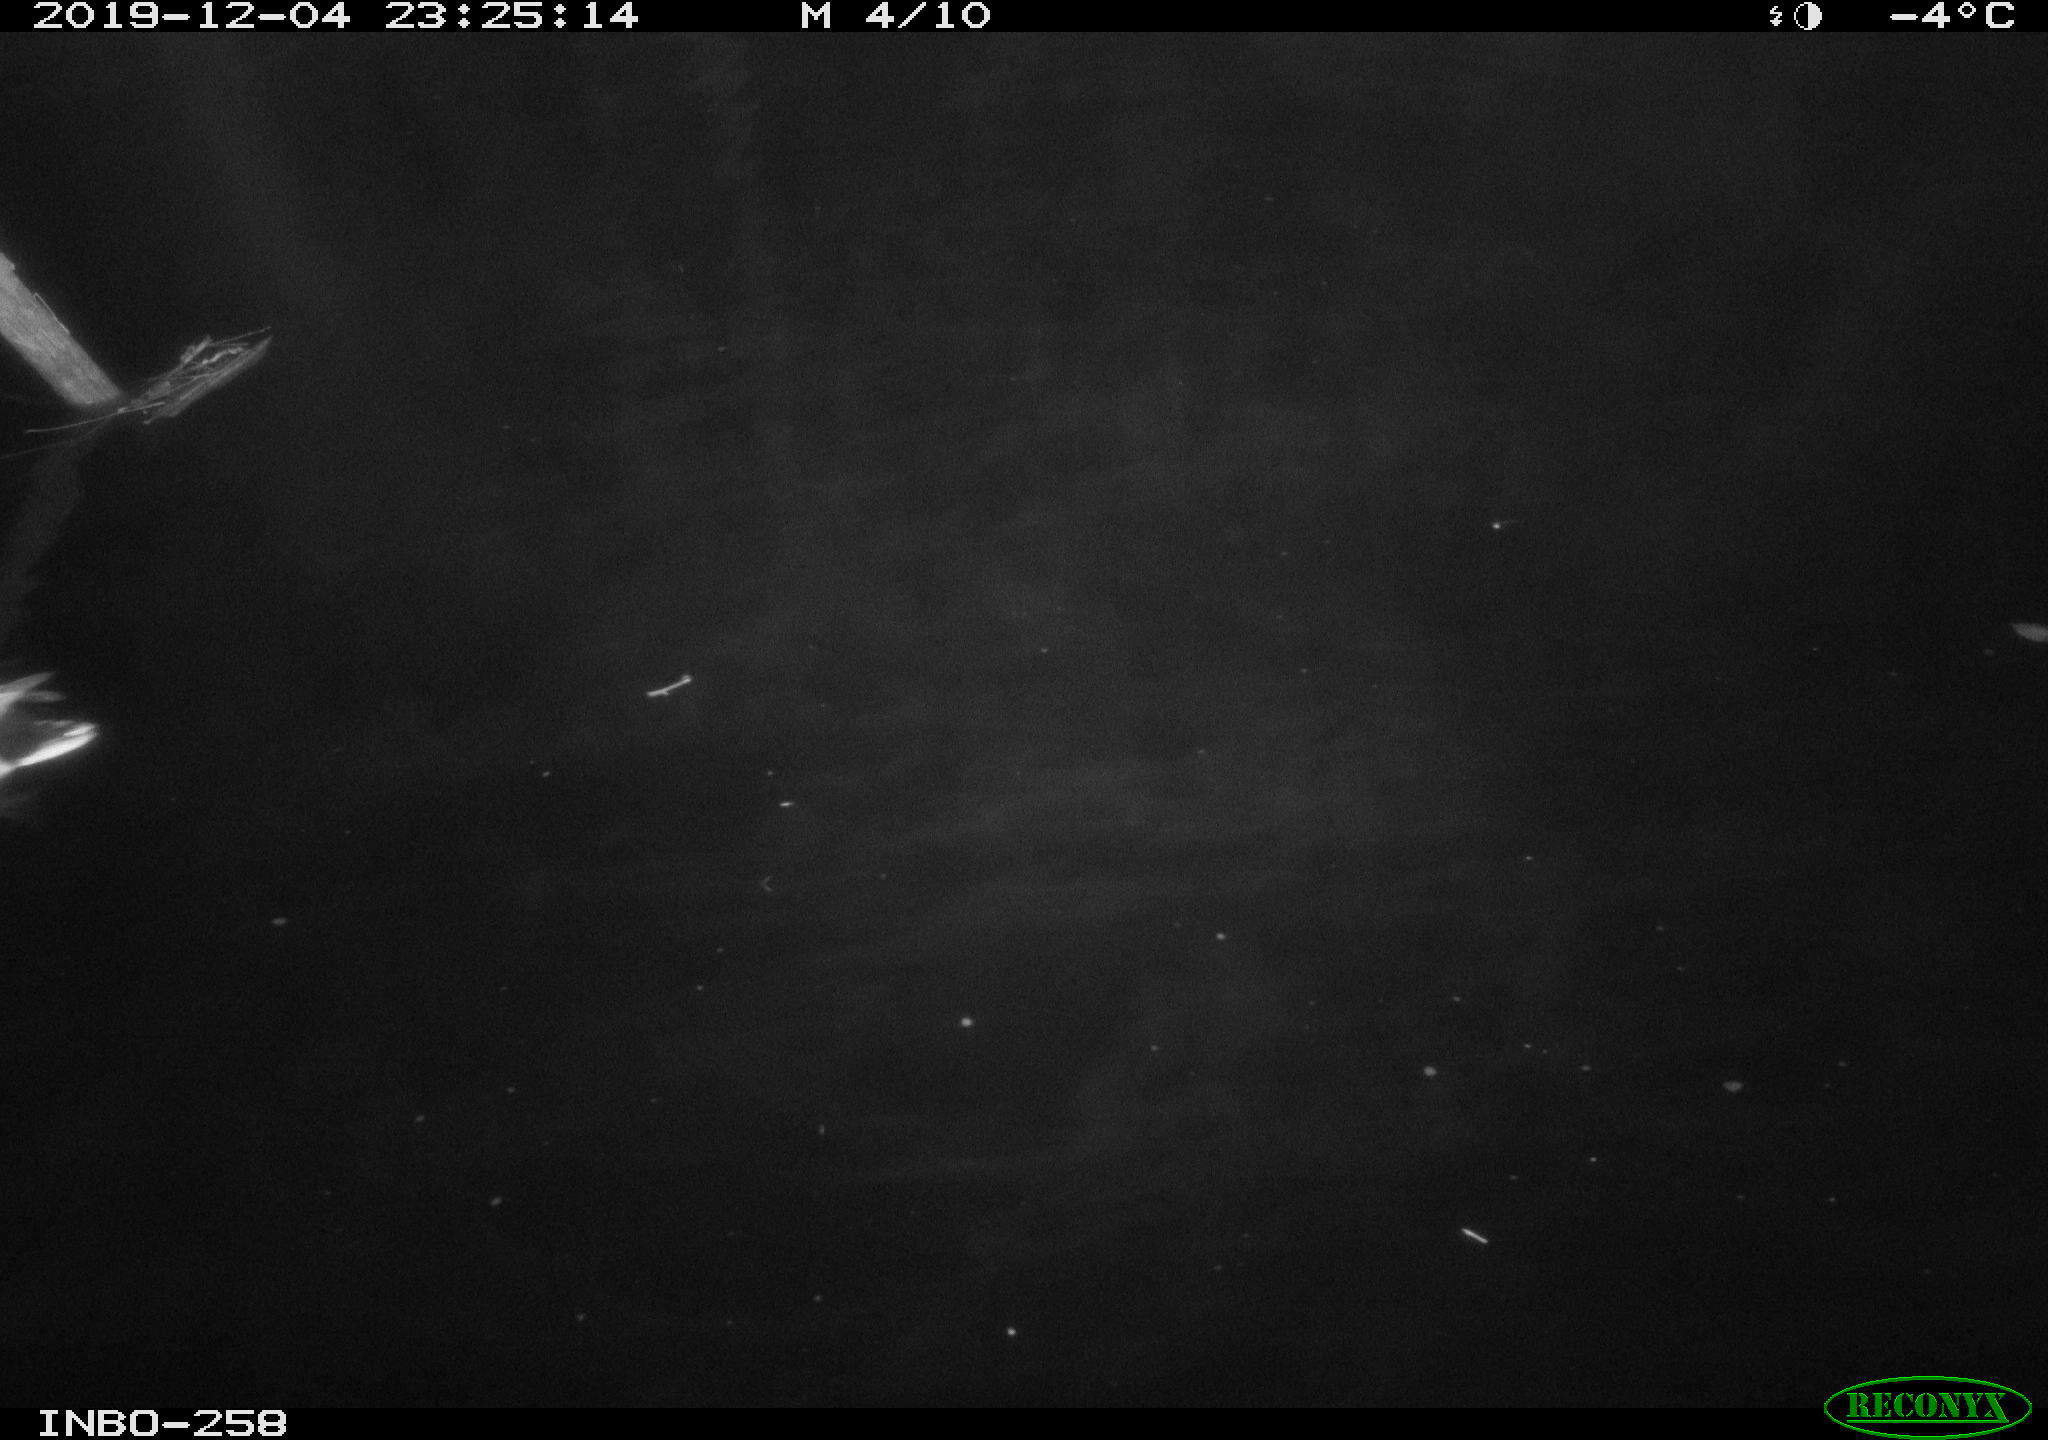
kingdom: Animalia
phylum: Chordata
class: Aves
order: Anseriformes
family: Anatidae
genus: Anas
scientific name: Anas platyrhynchos
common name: Mallard
